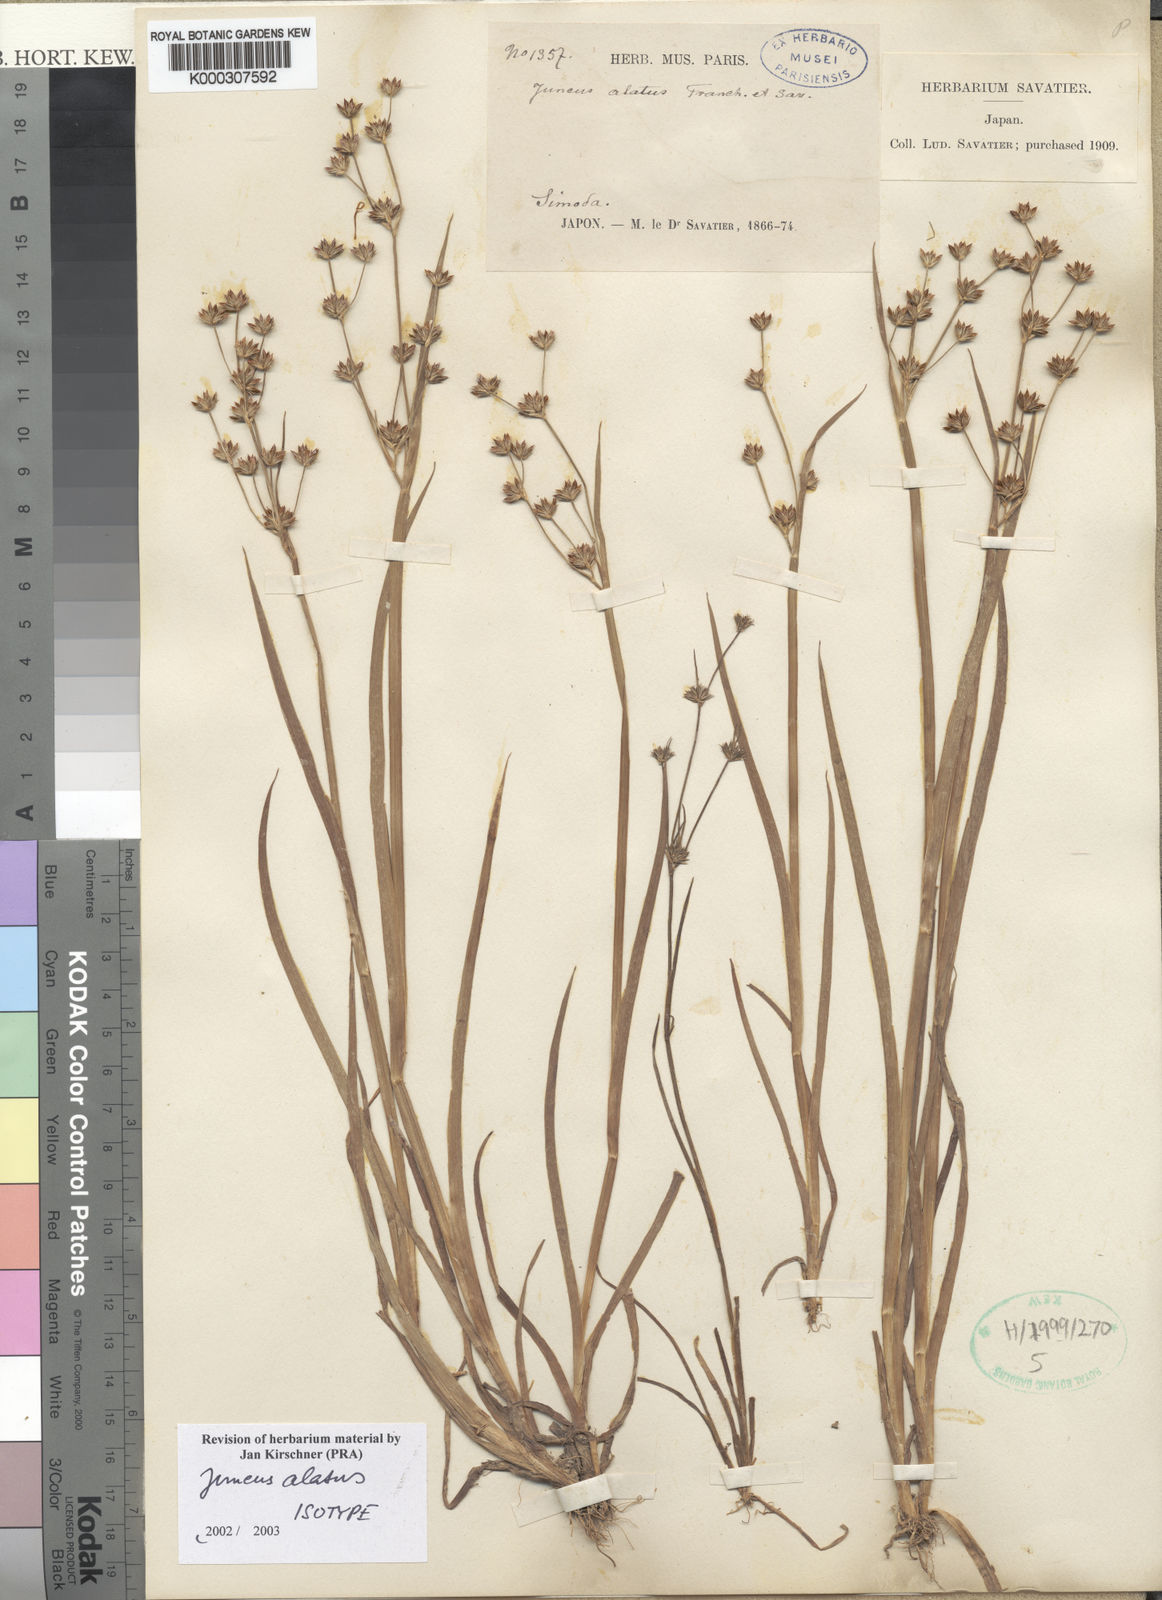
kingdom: Plantae
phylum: Tracheophyta
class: Liliopsida
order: Poales
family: Juncaceae
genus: Juncus
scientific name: Juncus alatus
